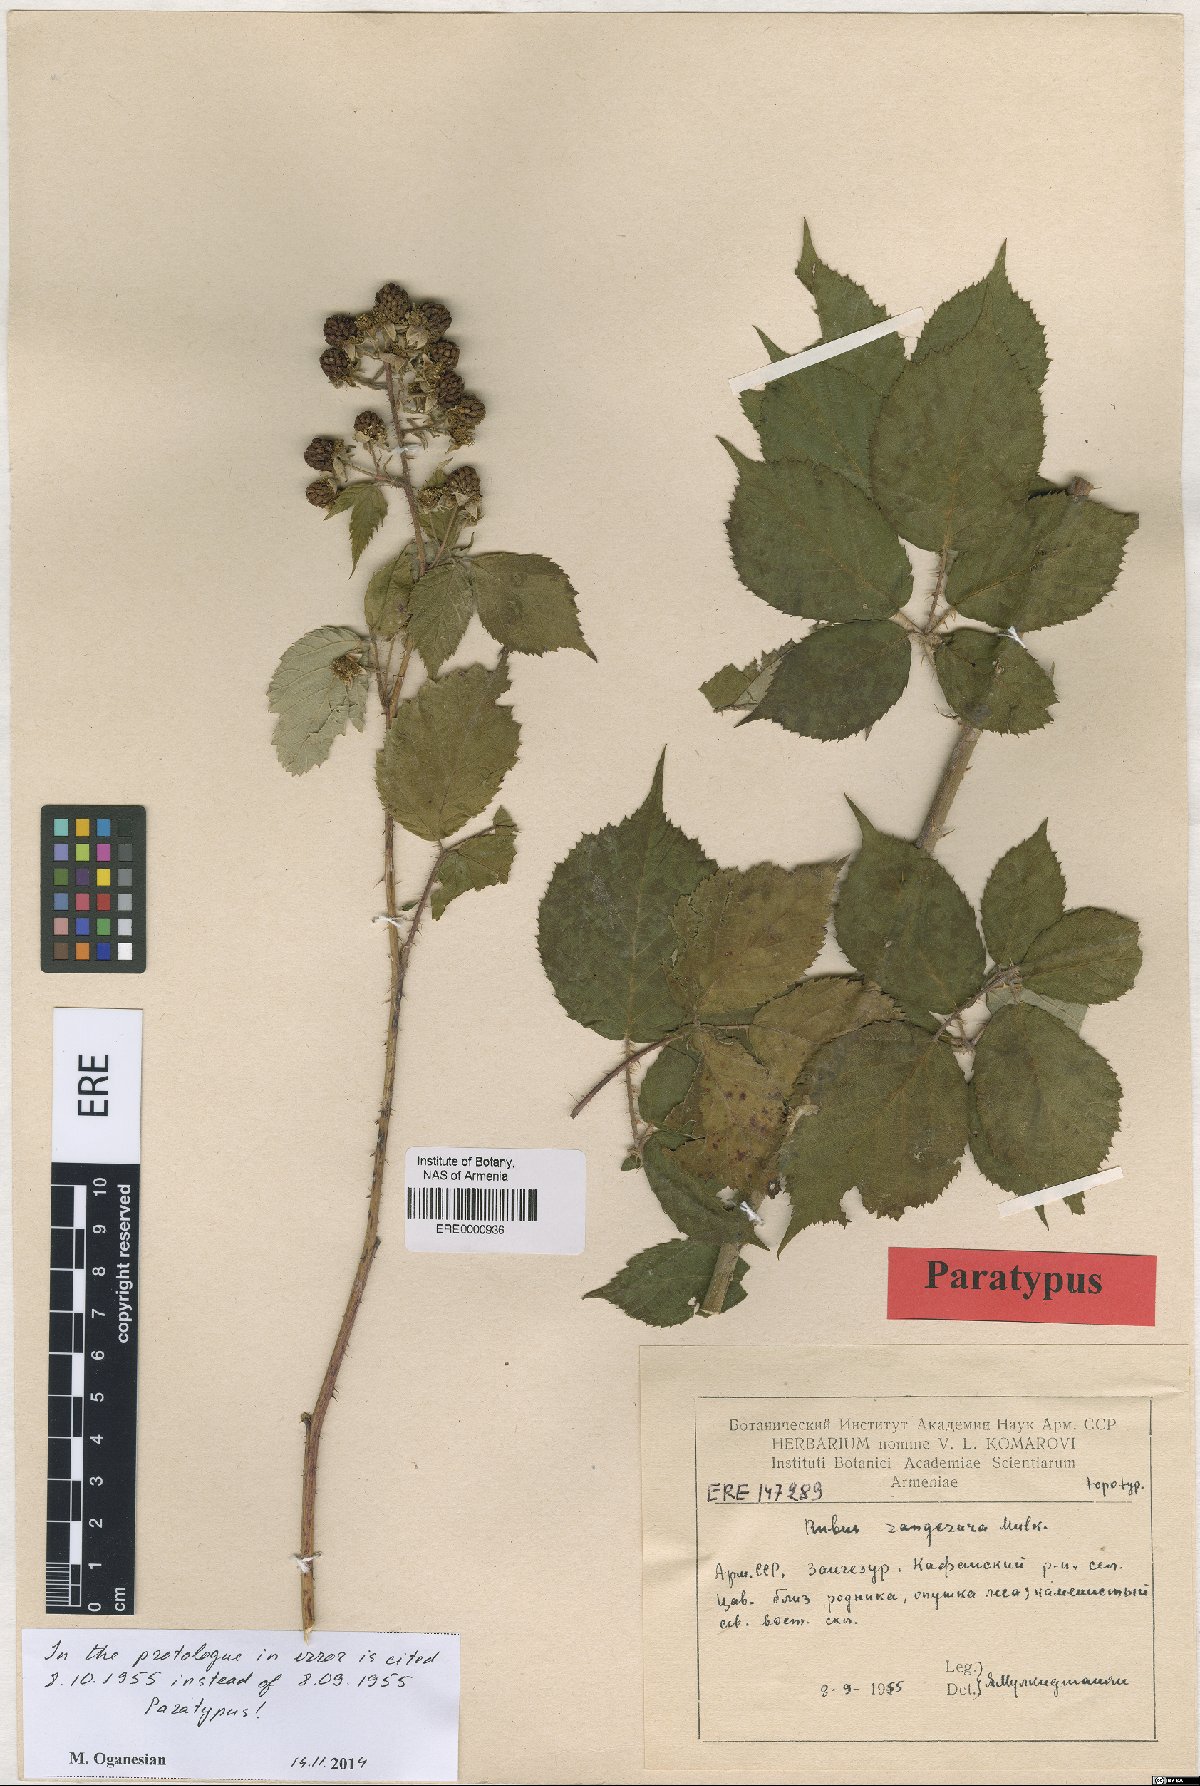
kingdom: Plantae
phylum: Tracheophyta
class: Magnoliopsida
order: Rosales
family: Rosaceae
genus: Rubus
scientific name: Rubus zangezurus
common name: Zangezurian blackberry
